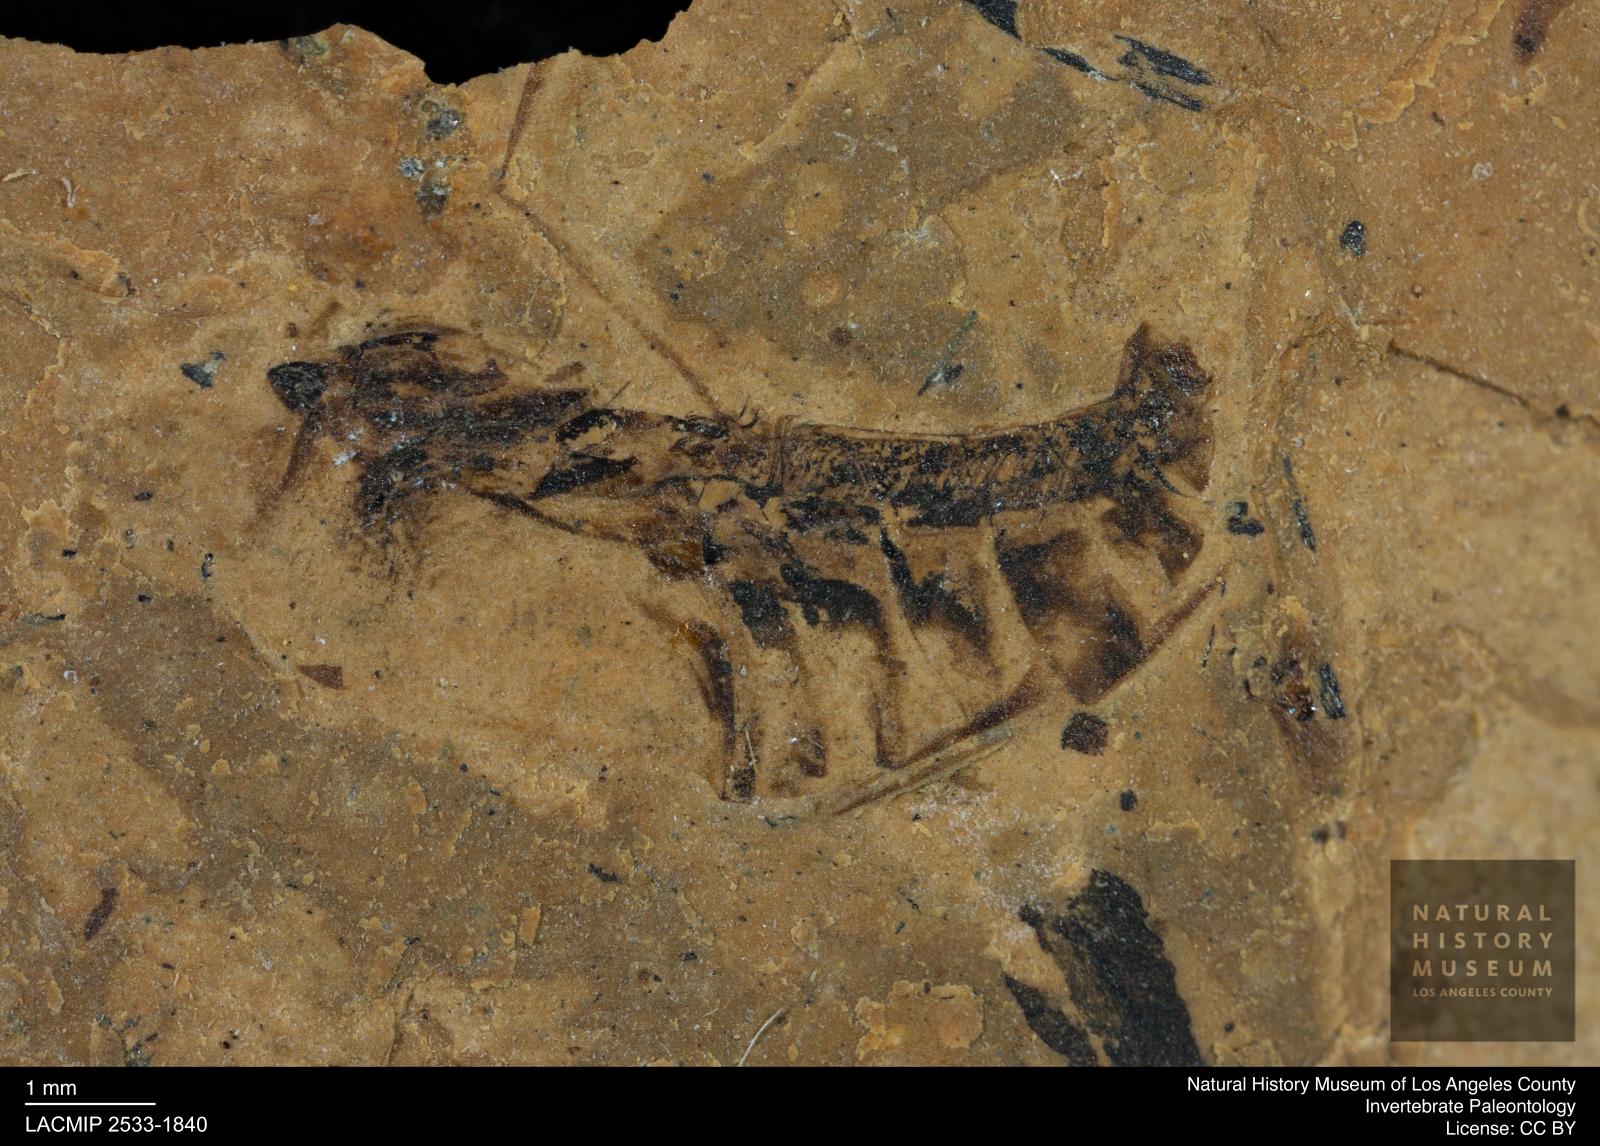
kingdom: Animalia
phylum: Arthropoda
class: Insecta
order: Hemiptera
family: Notonectidae
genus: Notonecta
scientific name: Notonecta
